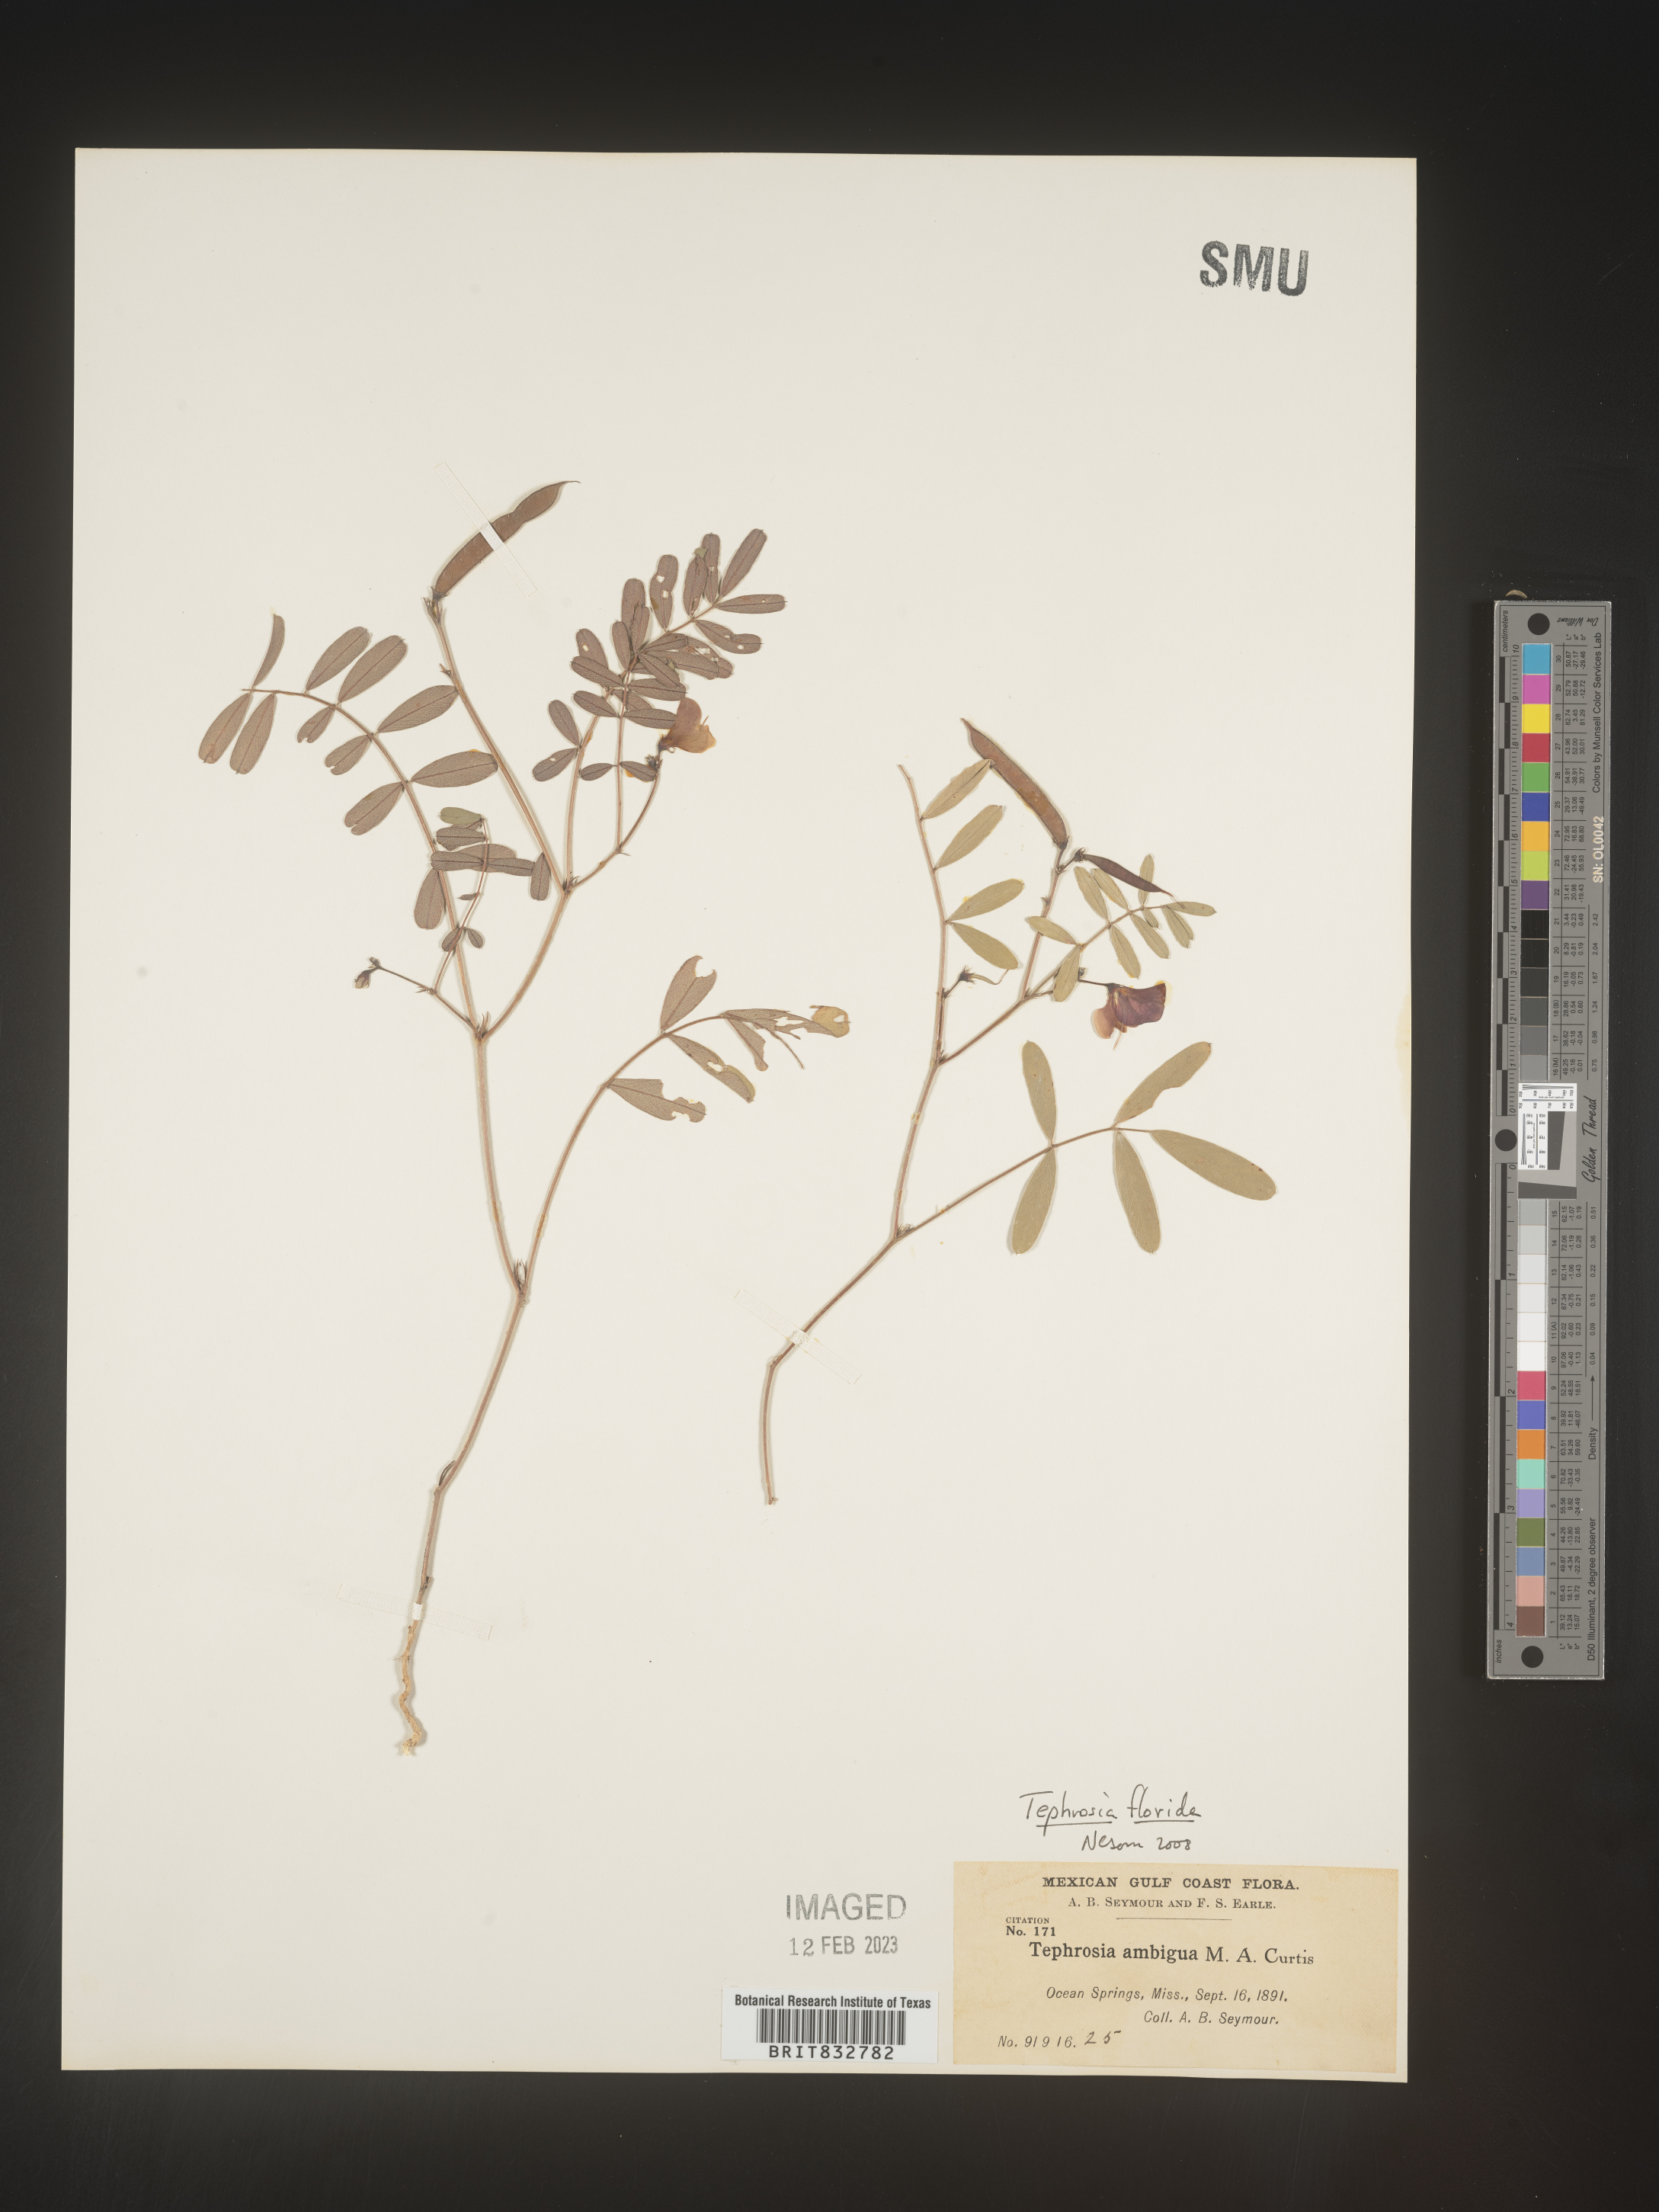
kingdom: Plantae
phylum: Tracheophyta
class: Magnoliopsida
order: Fabales
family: Fabaceae
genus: Tephrosia
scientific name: Tephrosia florida
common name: Florida hoary-pea
